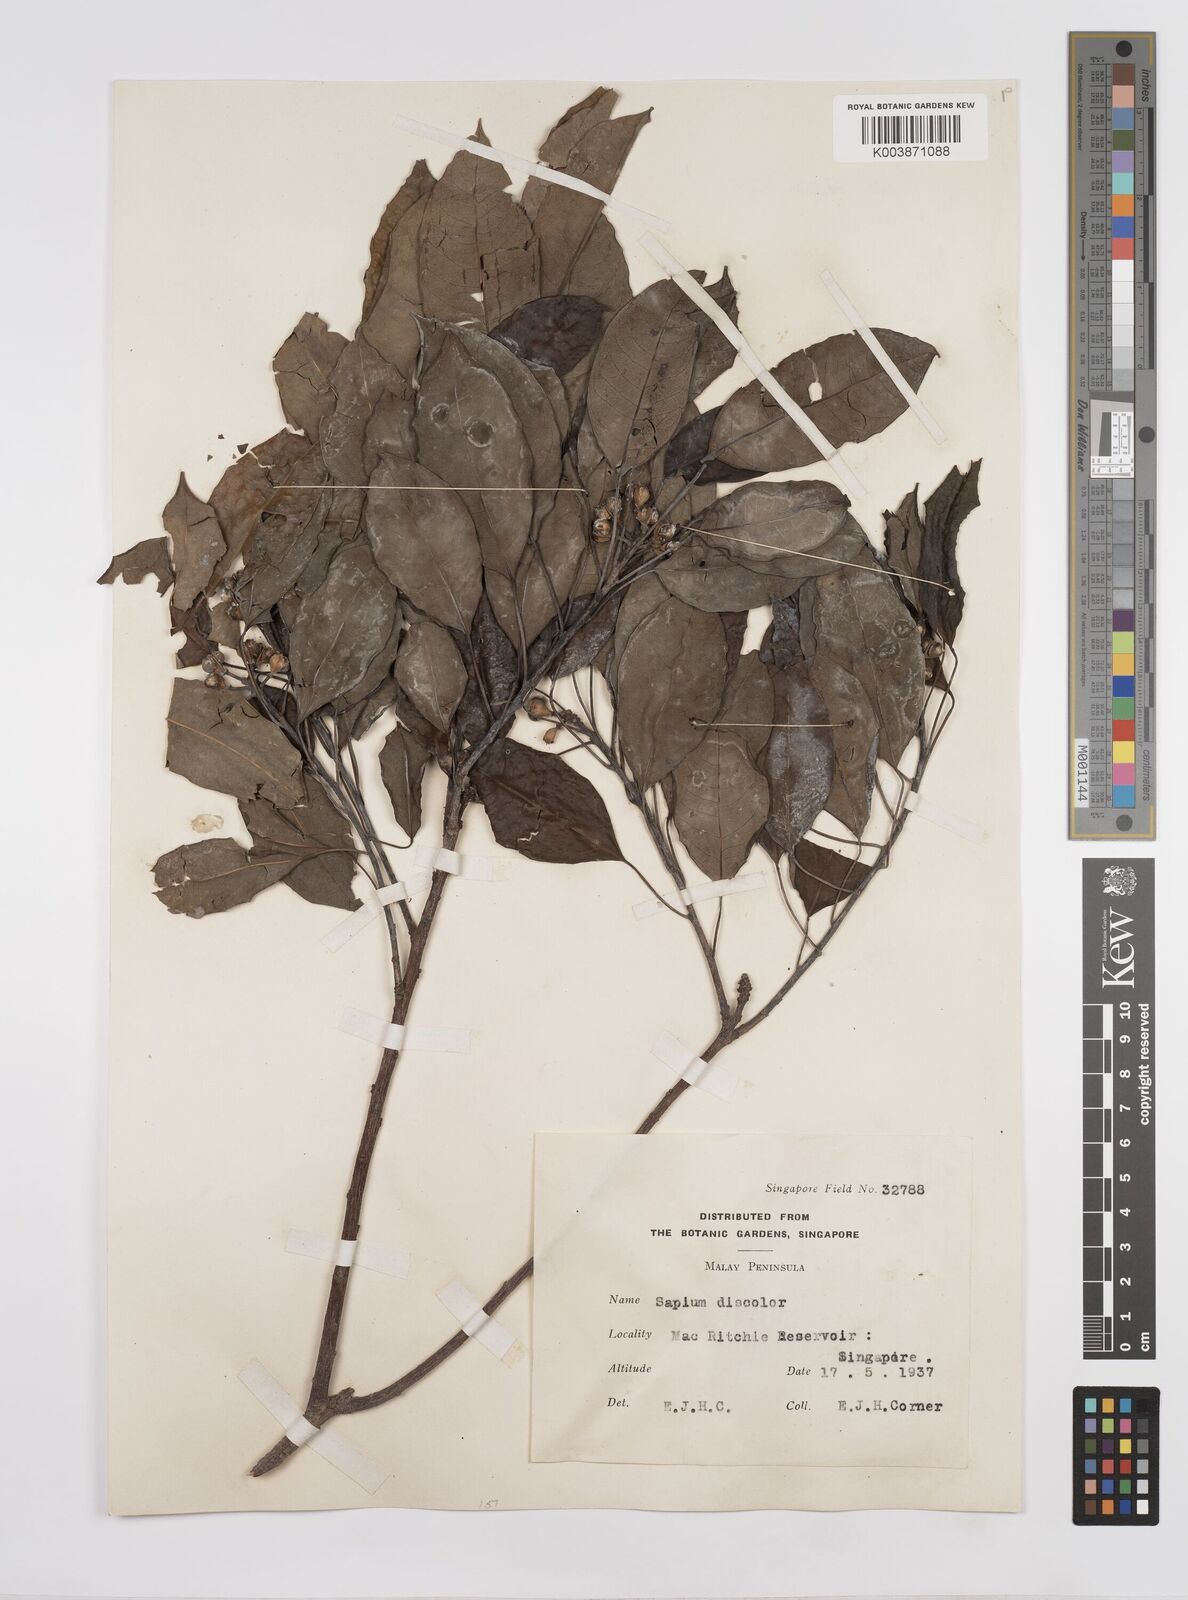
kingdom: Plantae
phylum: Tracheophyta
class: Magnoliopsida
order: Malpighiales
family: Euphorbiaceae
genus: Triadica
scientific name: Triadica cochinchinensis
